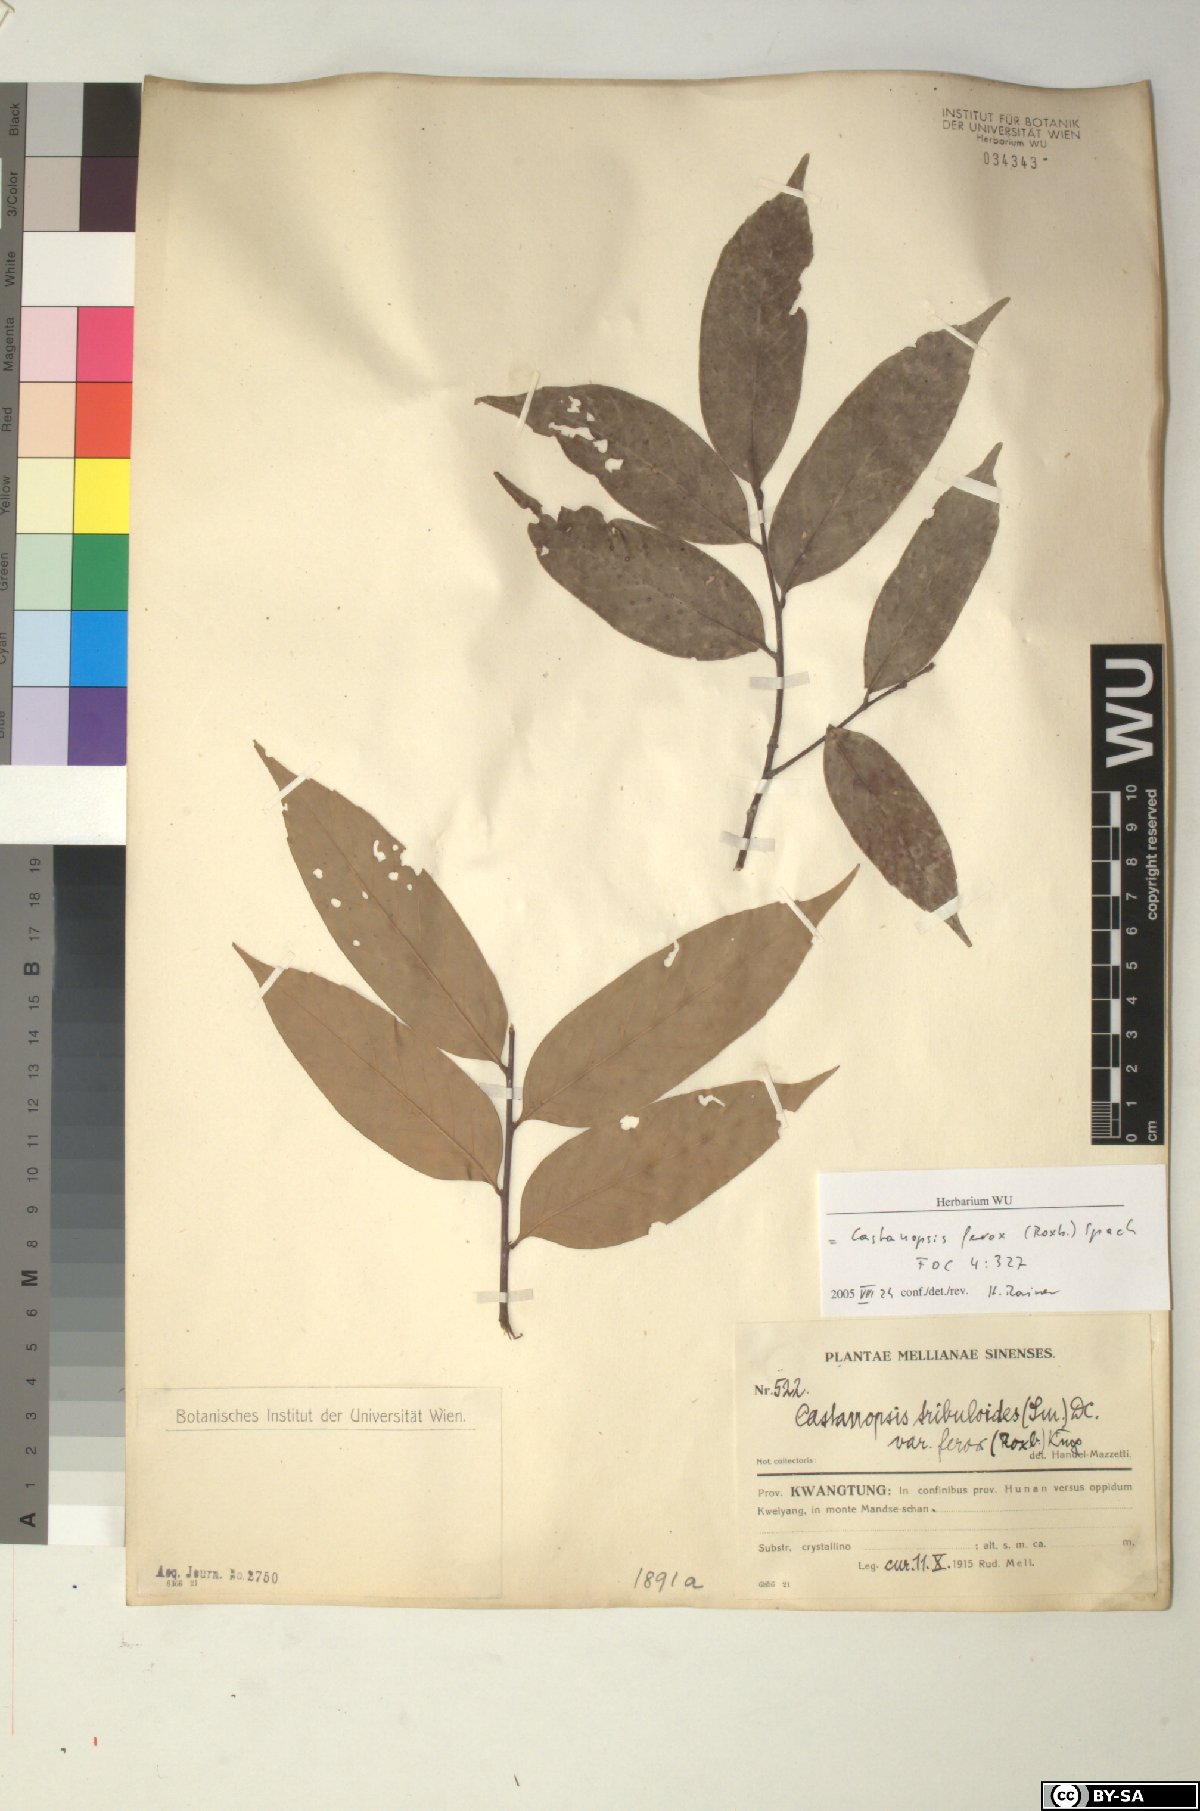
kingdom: Plantae
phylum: Tracheophyta
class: Magnoliopsida
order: Fagales
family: Fagaceae
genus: Castanopsis
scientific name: Castanopsis ferox
